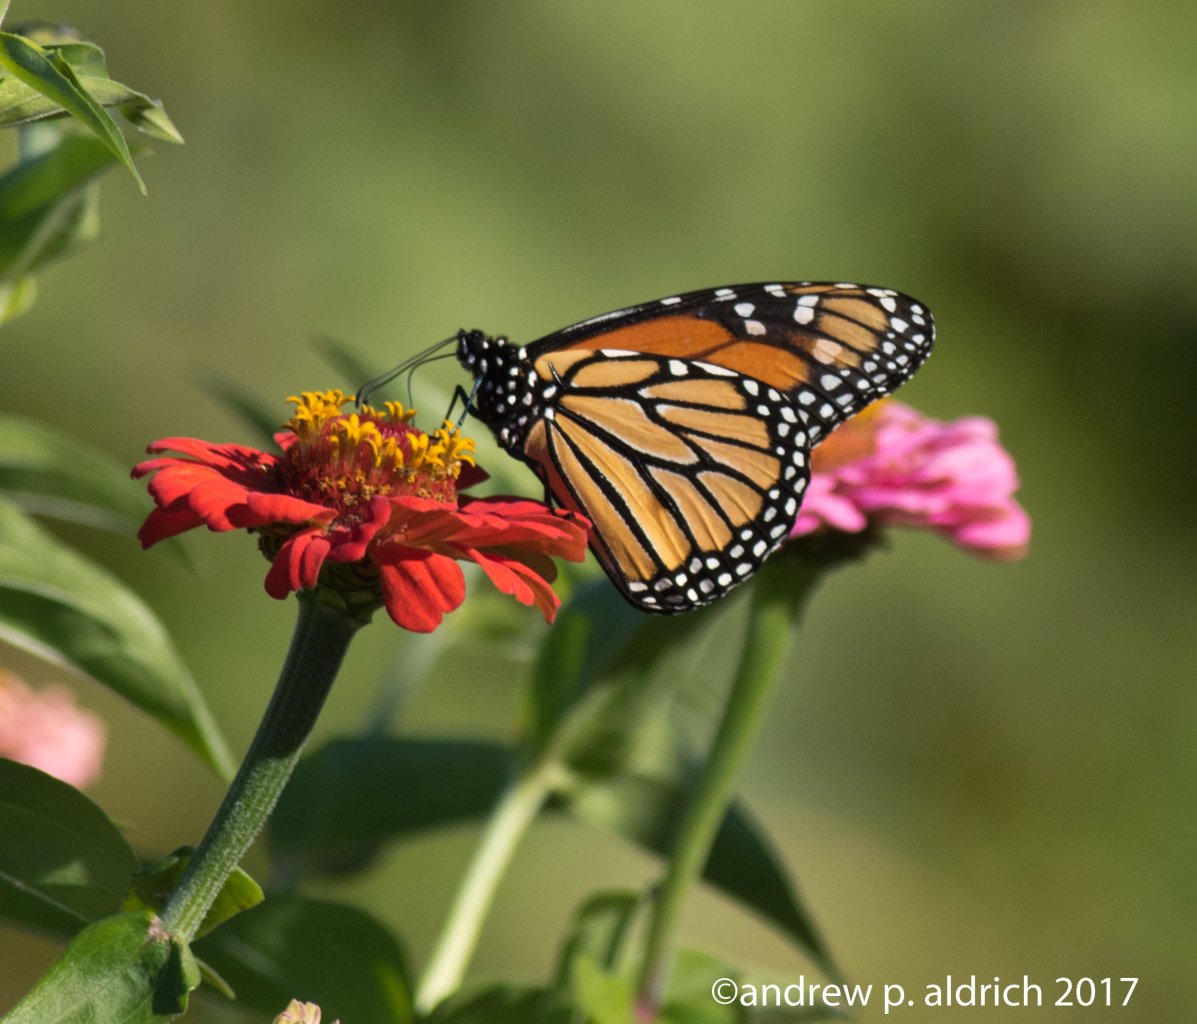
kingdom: Animalia
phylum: Arthropoda
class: Insecta
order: Lepidoptera
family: Nymphalidae
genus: Danaus
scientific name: Danaus plexippus
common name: Monarch
